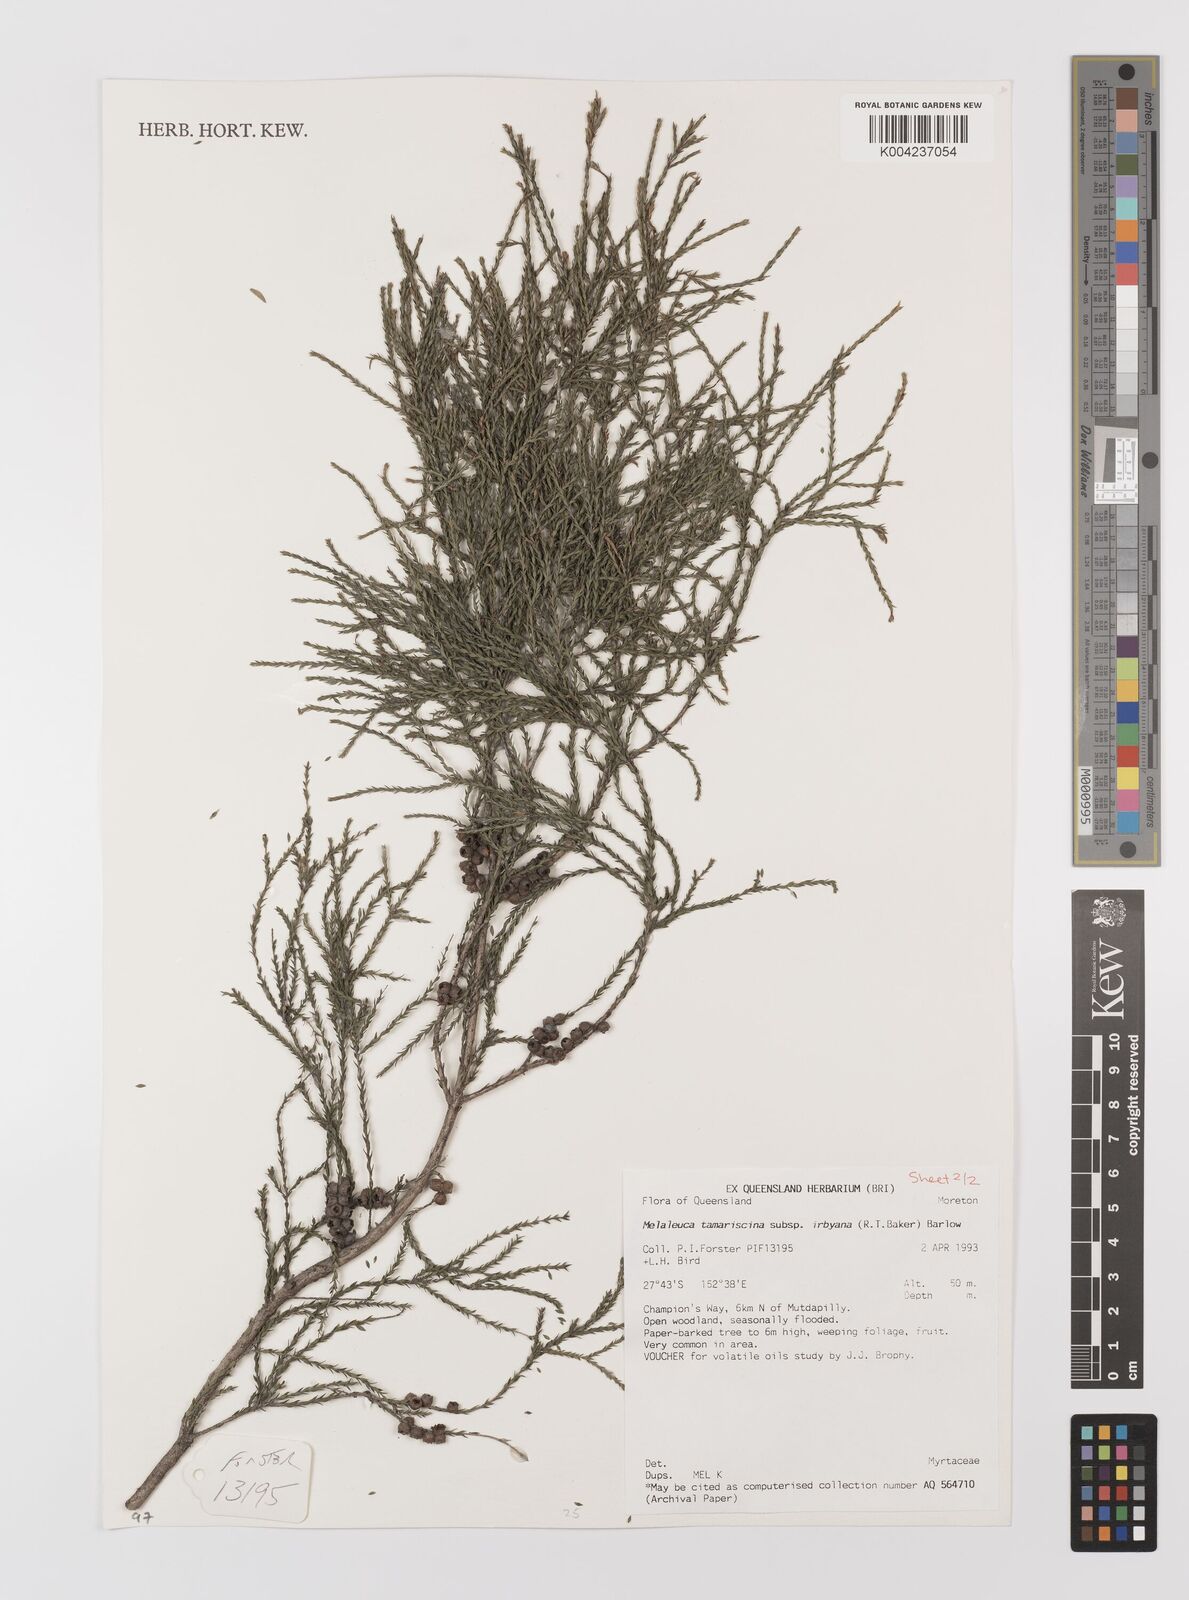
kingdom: Plantae
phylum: Tracheophyta
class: Magnoliopsida
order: Myrtales
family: Myrtaceae
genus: Melaleuca
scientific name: Melaleuca tamariscina
